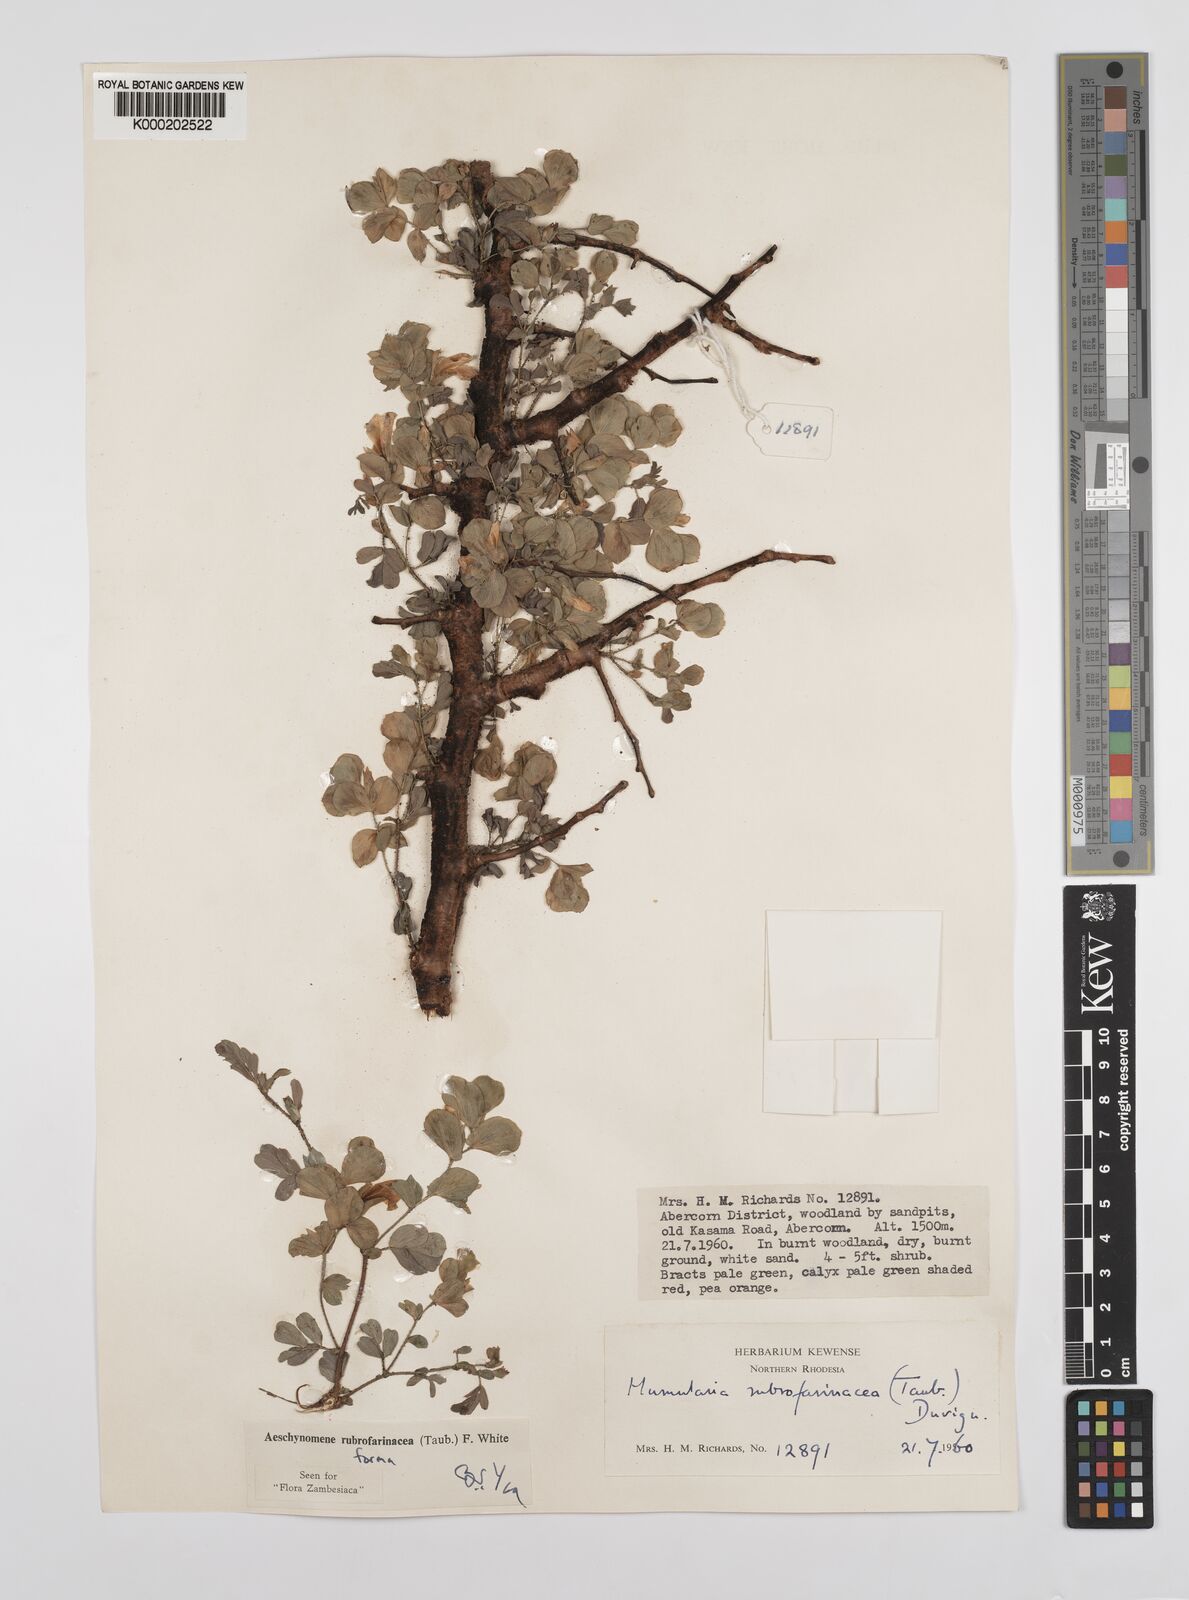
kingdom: Plantae
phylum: Tracheophyta
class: Magnoliopsida
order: Fabales
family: Fabaceae
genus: Aeschynomene
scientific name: Aeschynomene rubrofarinacea
